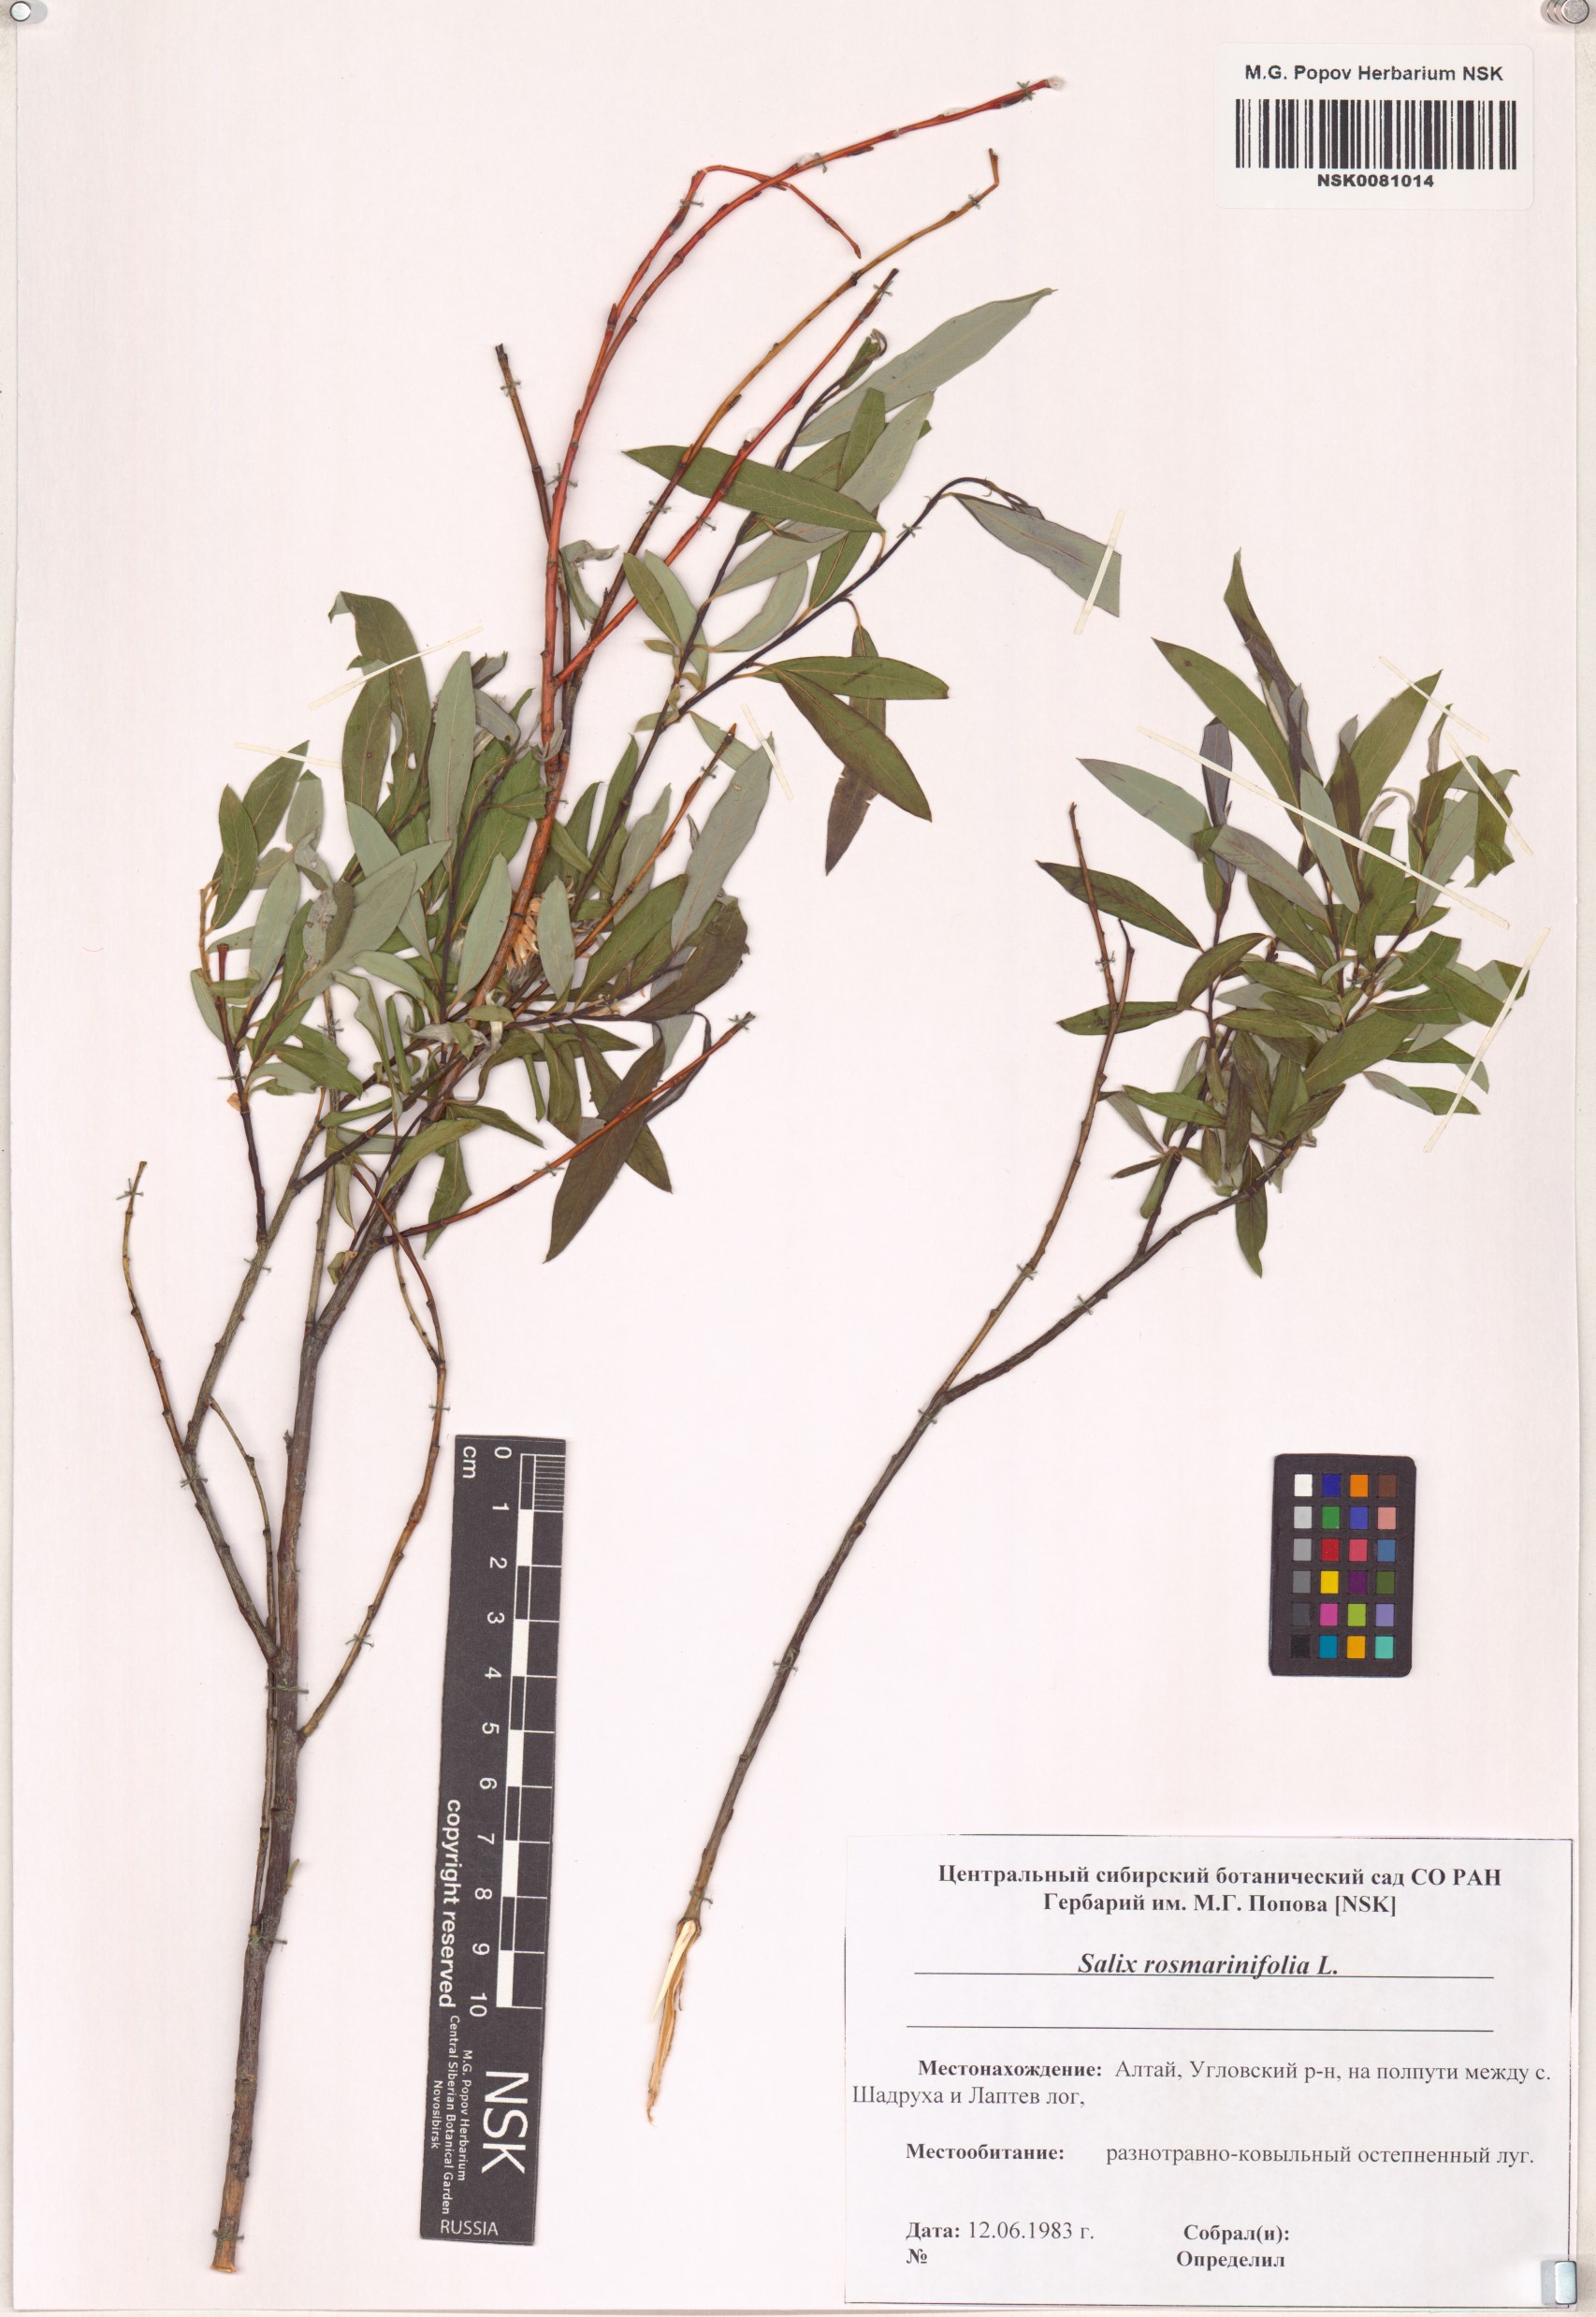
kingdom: Plantae
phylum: Tracheophyta
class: Magnoliopsida
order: Malpighiales
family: Salicaceae
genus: Salix
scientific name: Salix rosmarinifolia
